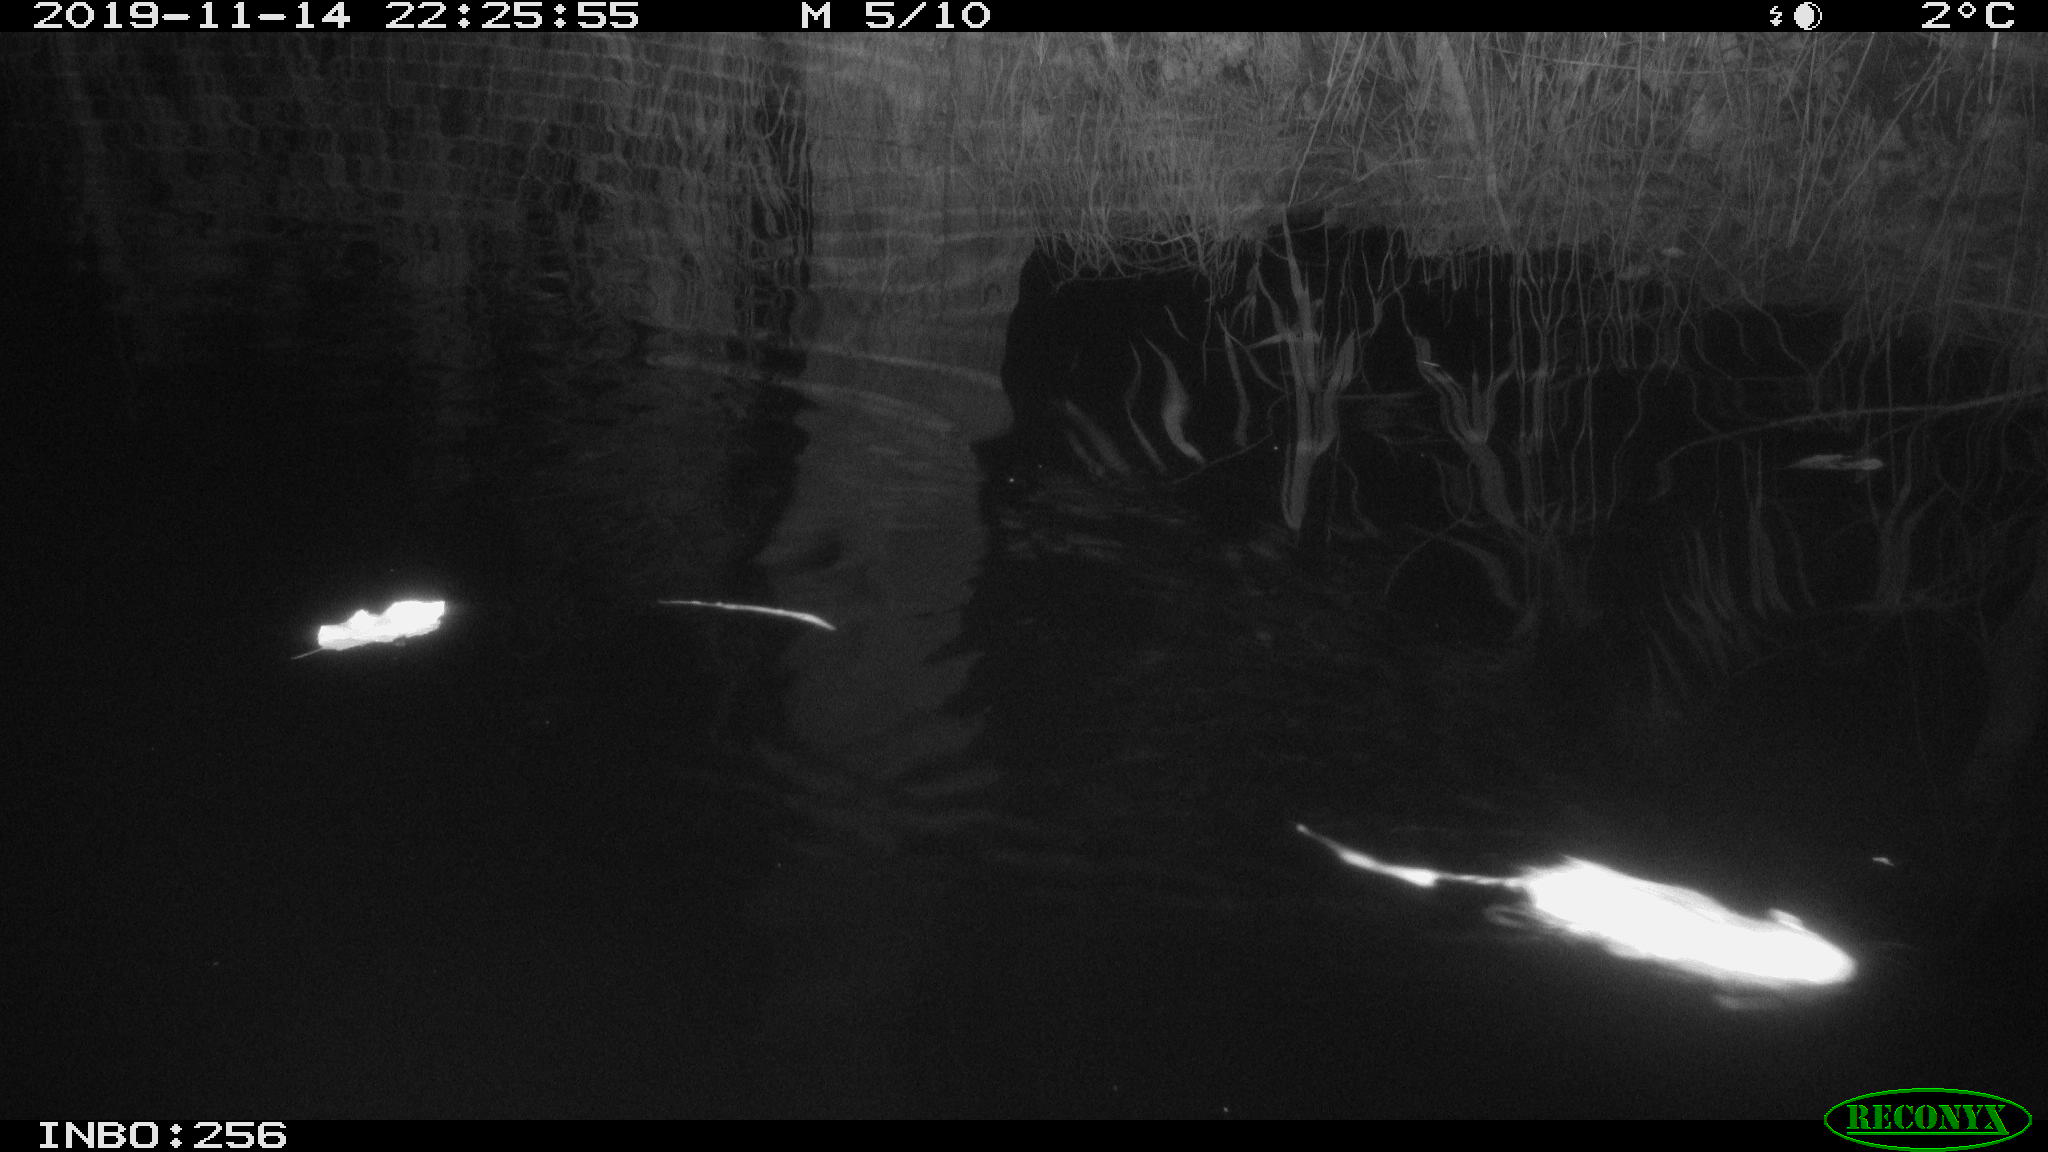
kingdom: Animalia
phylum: Chordata
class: Mammalia
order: Rodentia
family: Muridae
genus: Rattus
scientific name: Rattus norvegicus
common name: Brown rat
